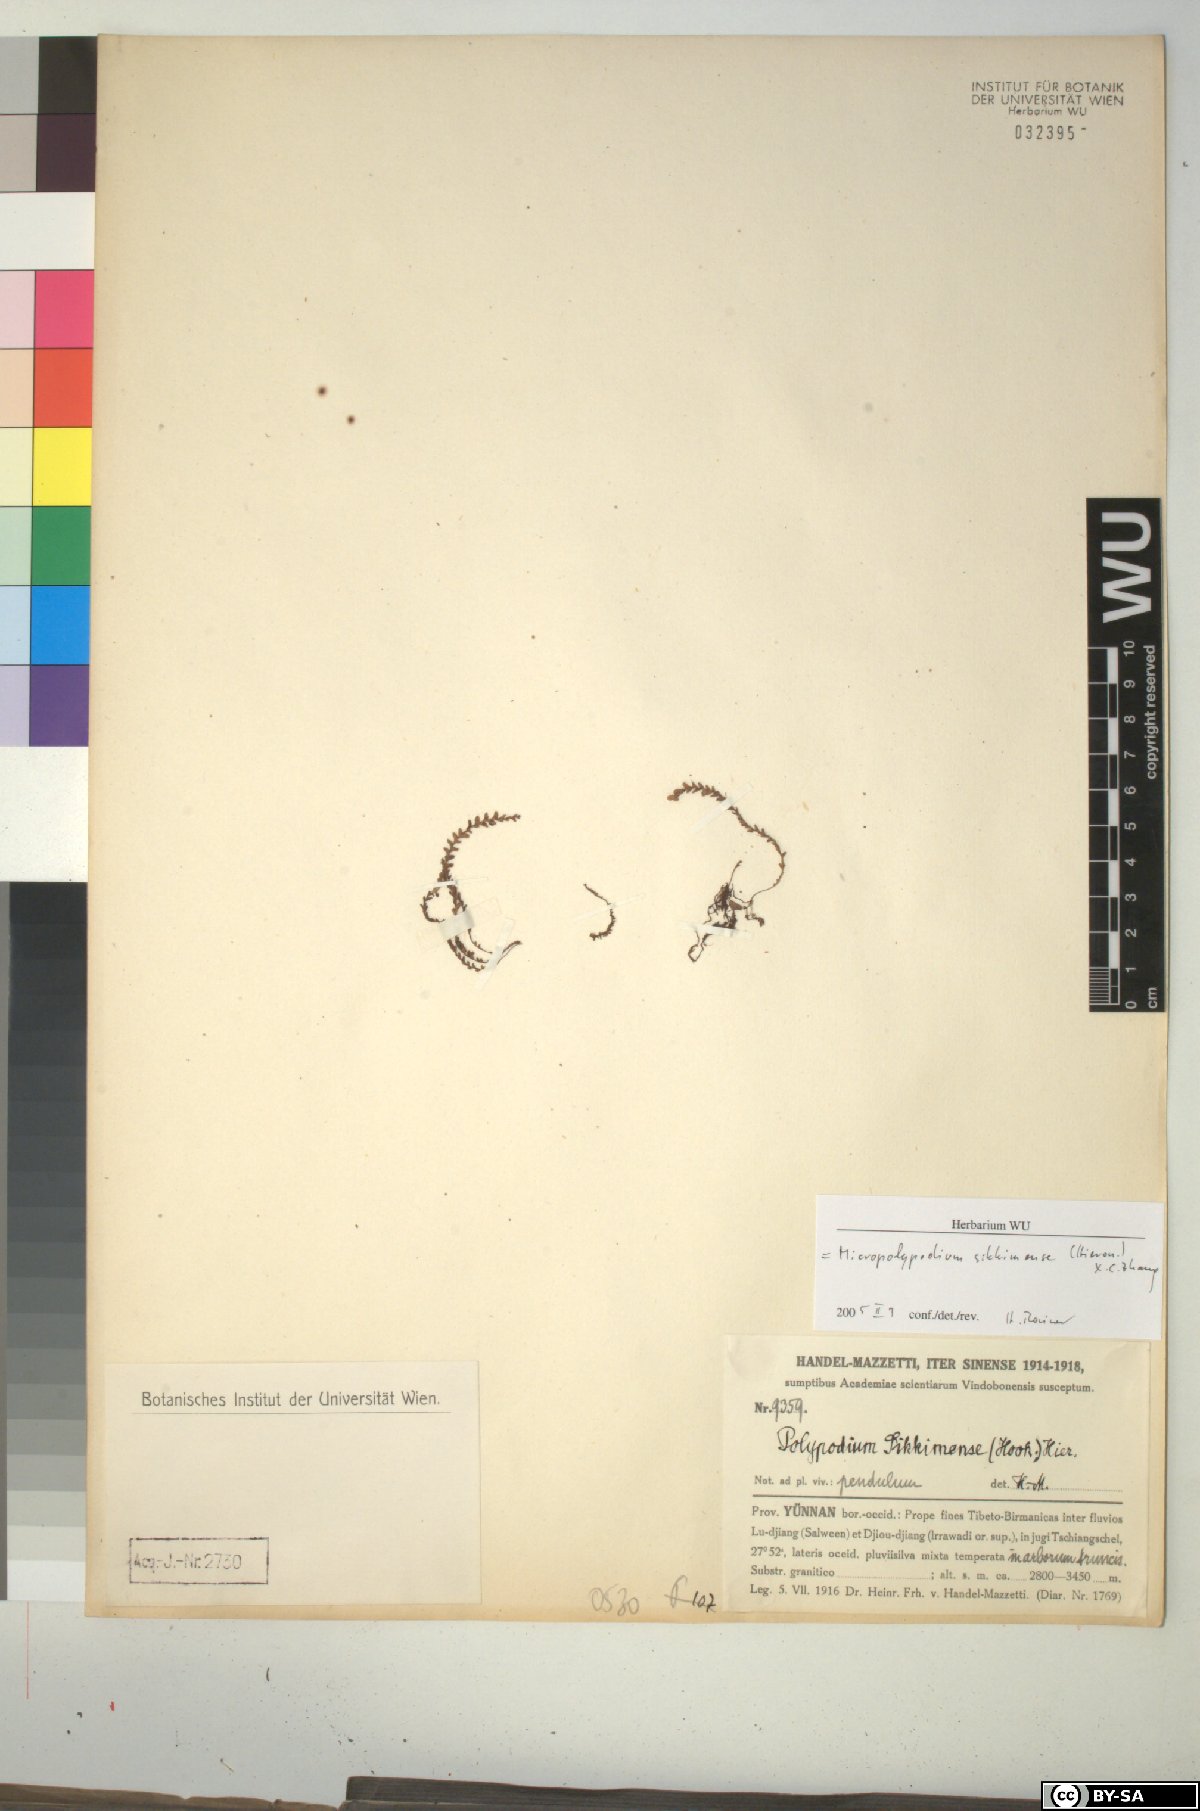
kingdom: Plantae
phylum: Tracheophyta
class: Polypodiopsida
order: Polypodiales
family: Polypodiaceae
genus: Micropolypodium
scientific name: Micropolypodium sikkimense
